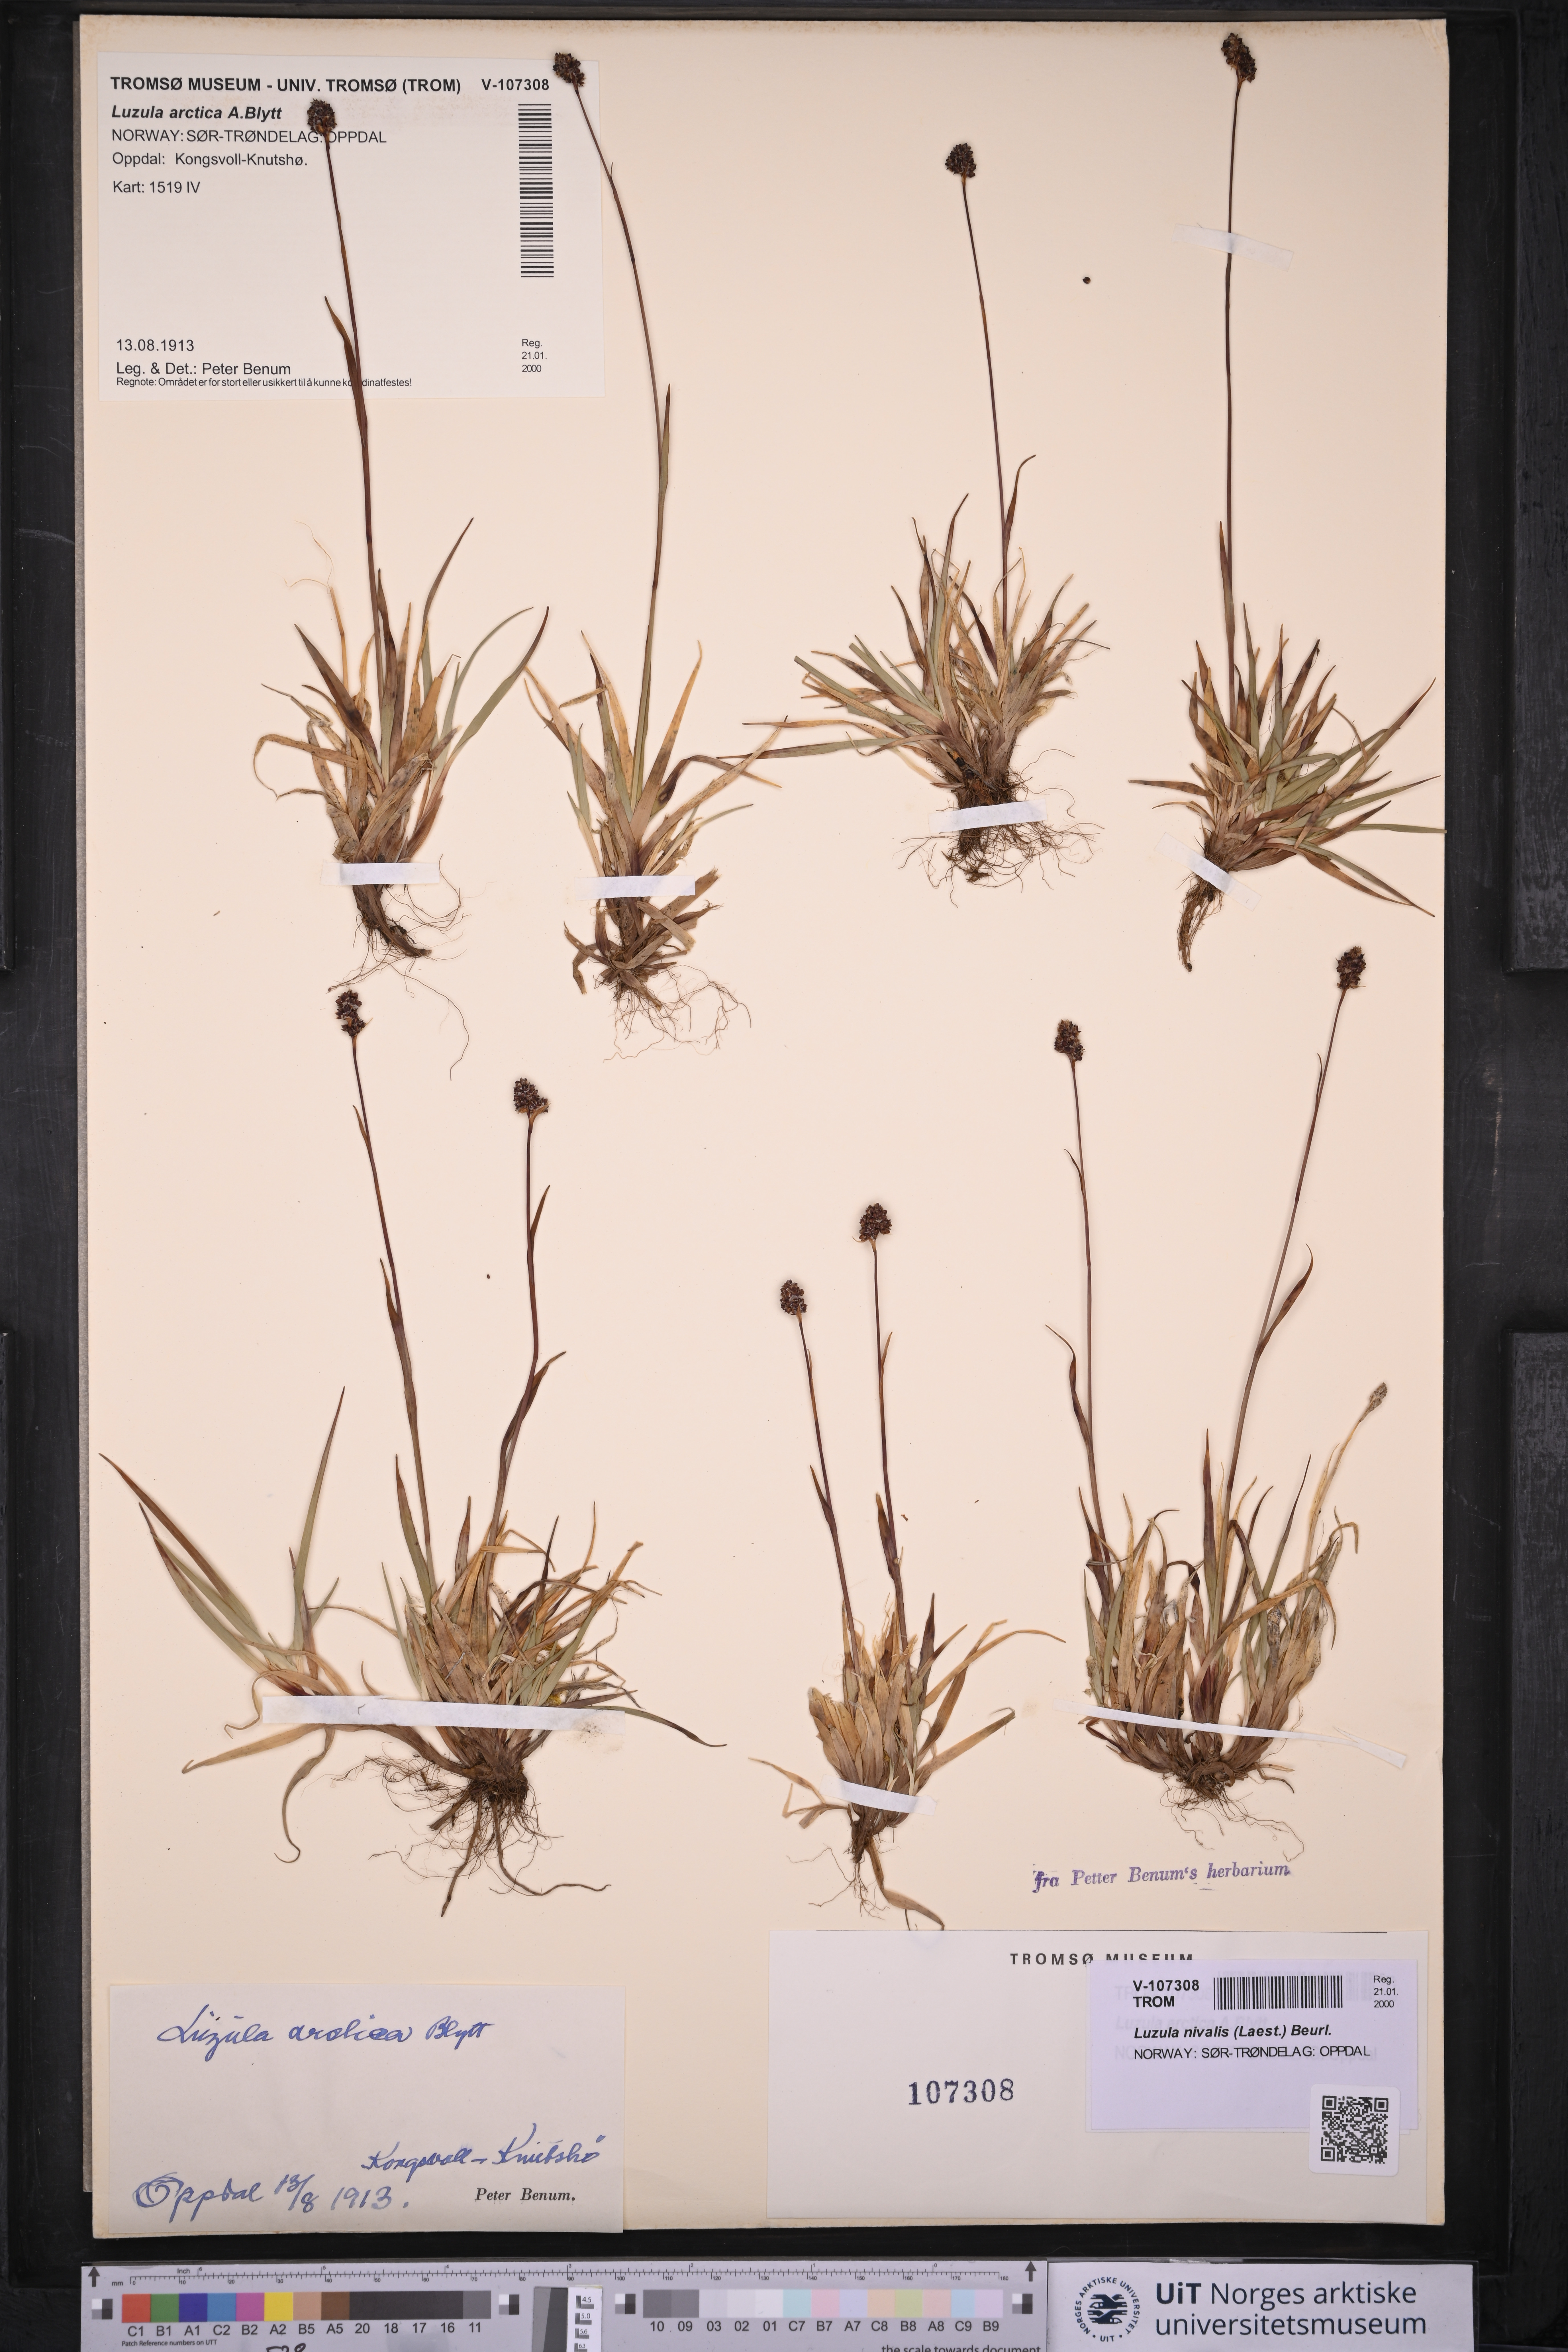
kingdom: Plantae
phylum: Tracheophyta
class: Liliopsida
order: Poales
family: Juncaceae
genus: Luzula
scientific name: Luzula nivalis
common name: Arctic woodrush
